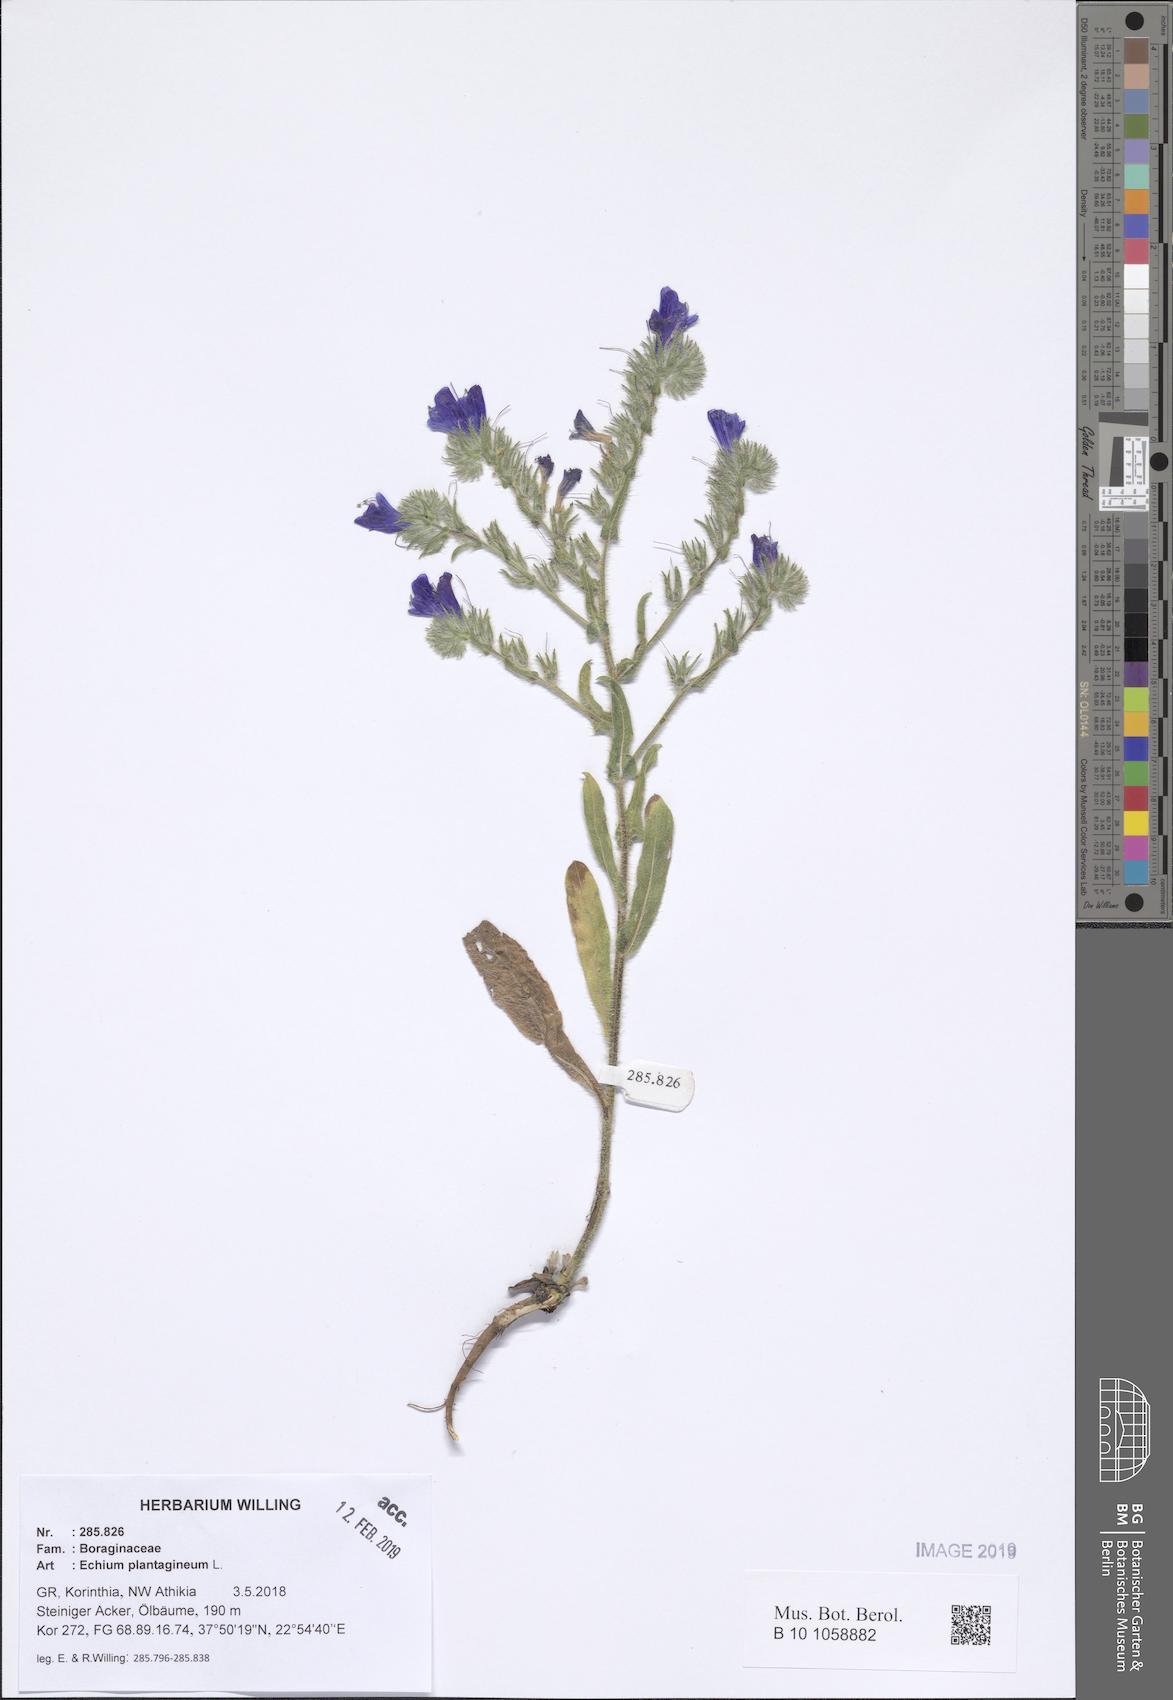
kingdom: Plantae
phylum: Tracheophyta
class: Magnoliopsida
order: Boraginales
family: Boraginaceae
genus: Echium
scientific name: Echium plantagineum
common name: Purple viper's-bugloss
